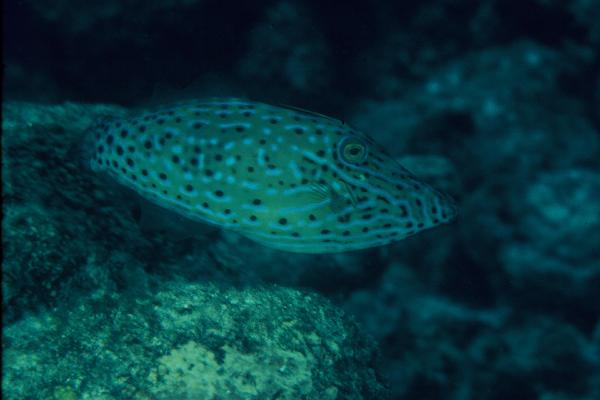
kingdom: Animalia
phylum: Chordata
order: Tetraodontiformes
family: Monacanthidae
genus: Aluterus
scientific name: Aluterus scriptus
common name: Scribbled leatherjacket filefish
